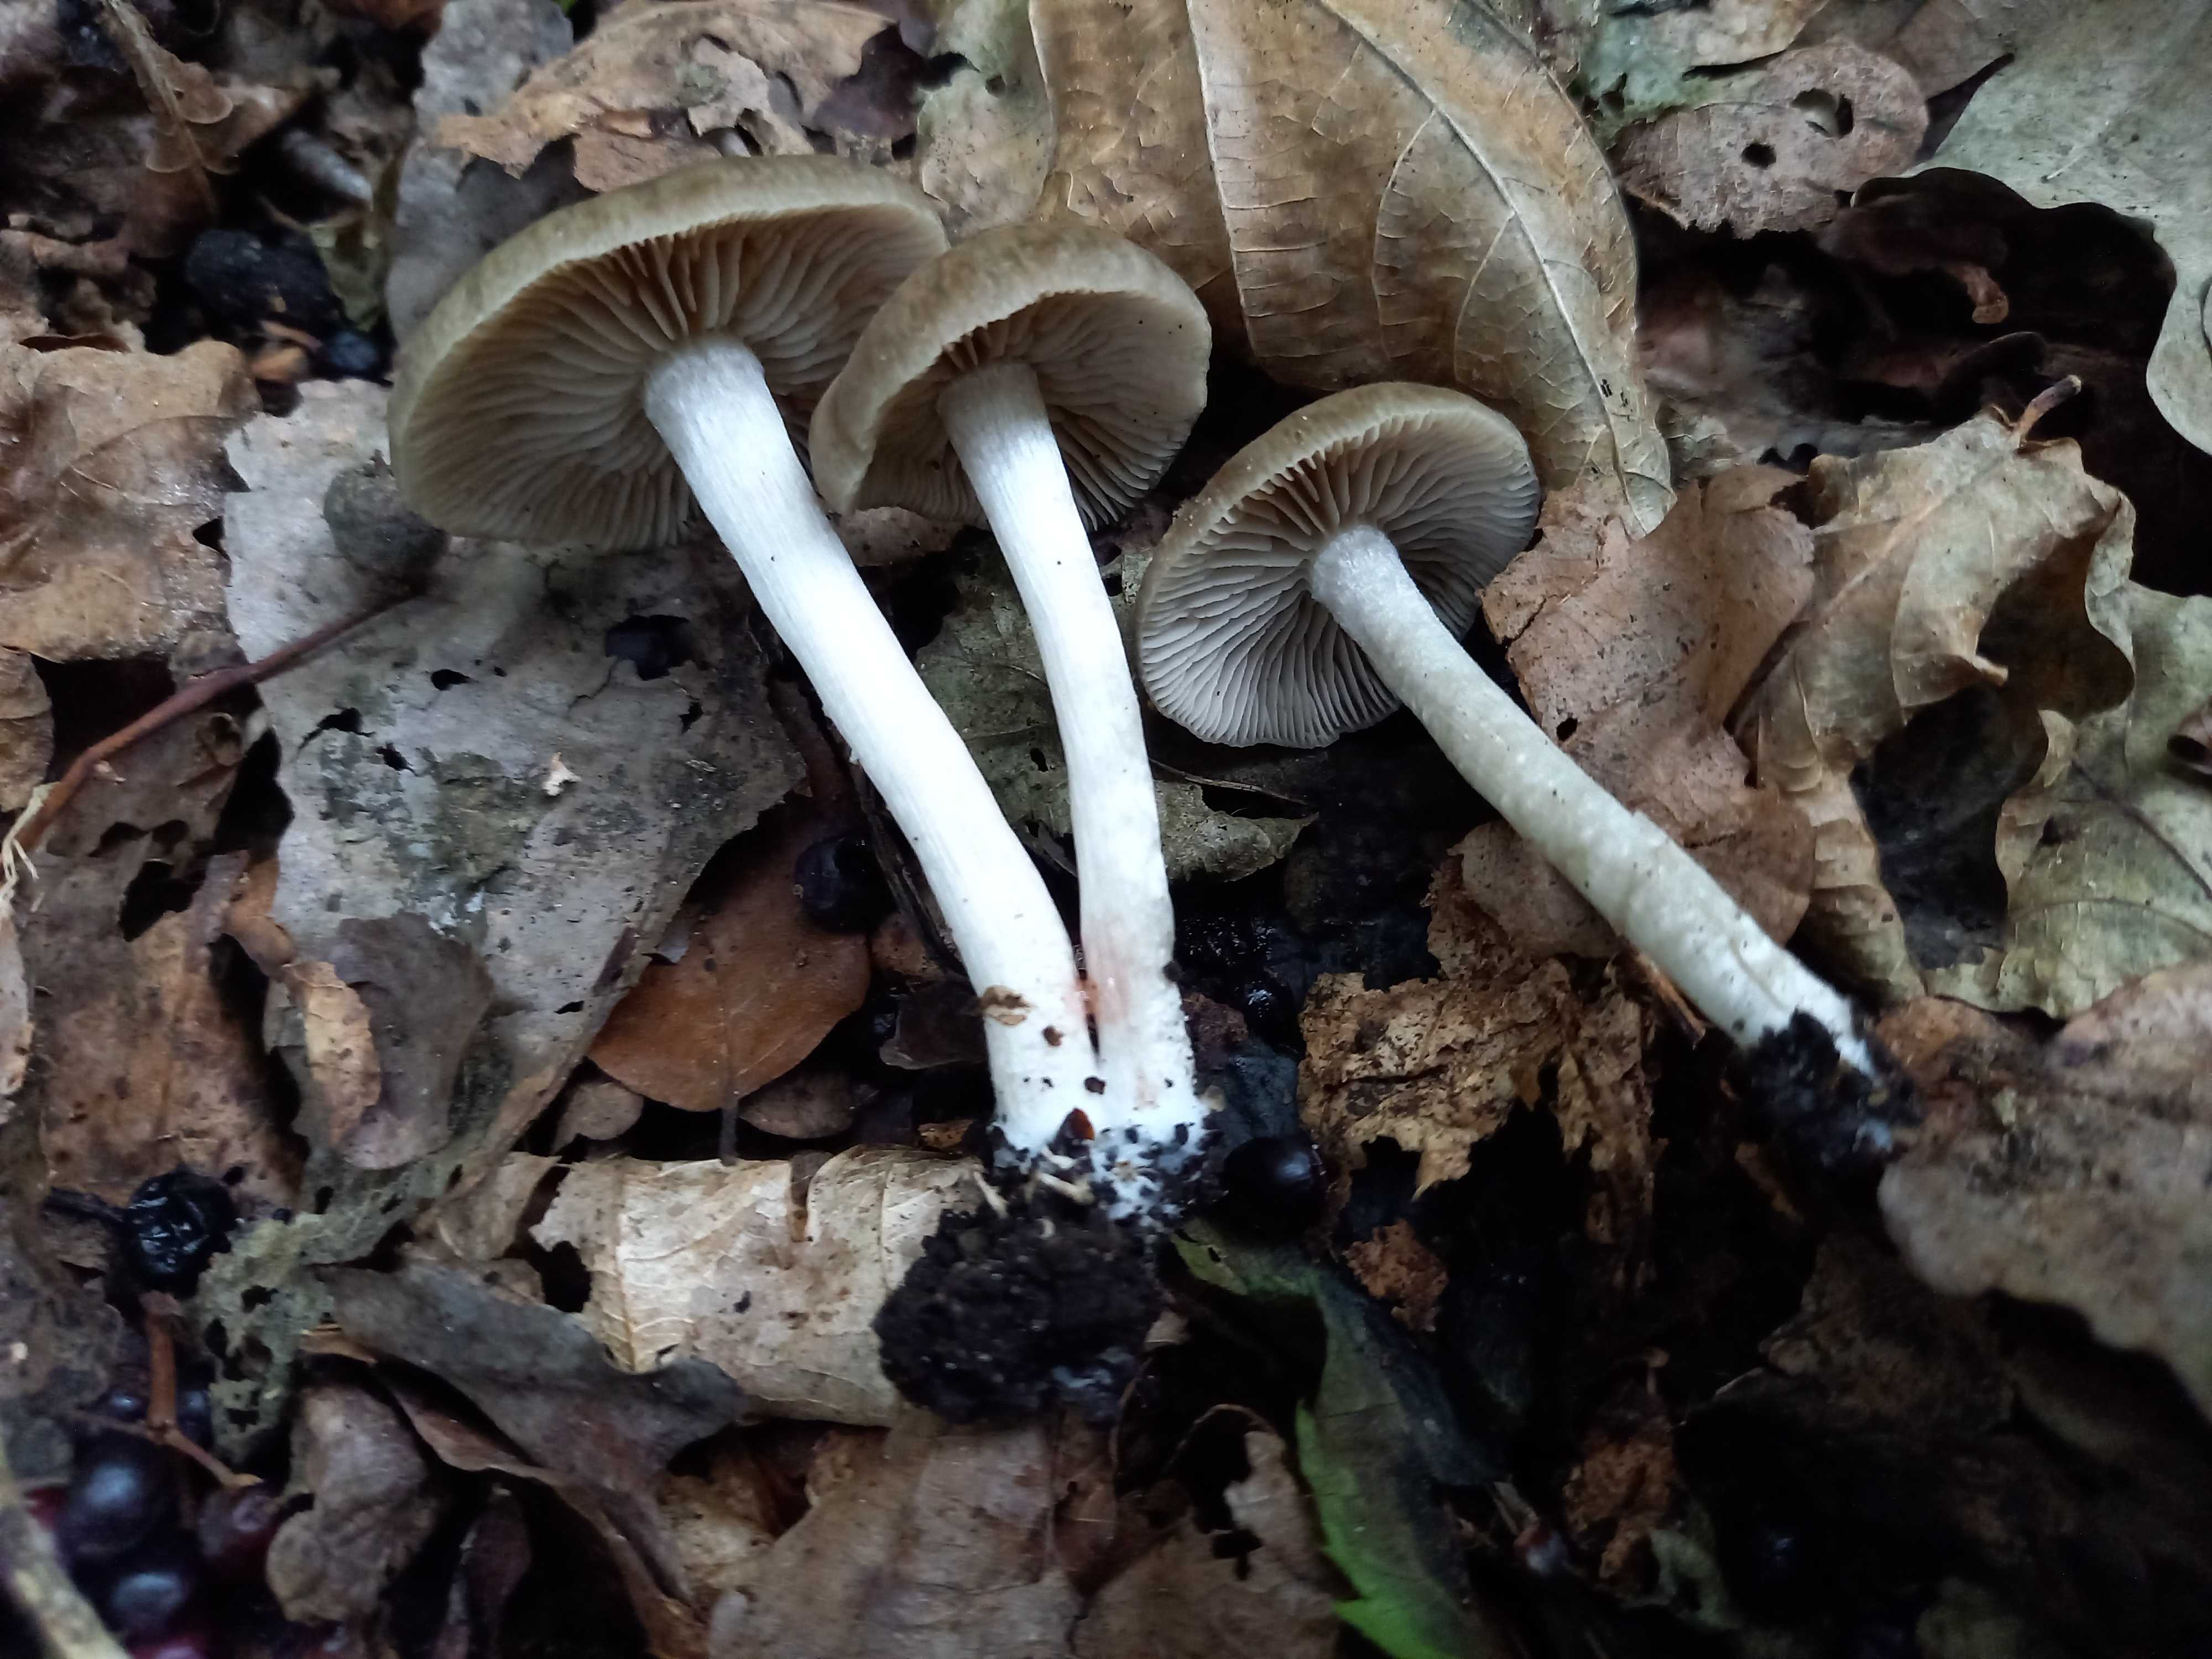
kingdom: Fungi
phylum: Basidiomycota
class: Agaricomycetes
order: Agaricales
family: Entolomataceae
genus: Entoloma
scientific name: Entoloma
